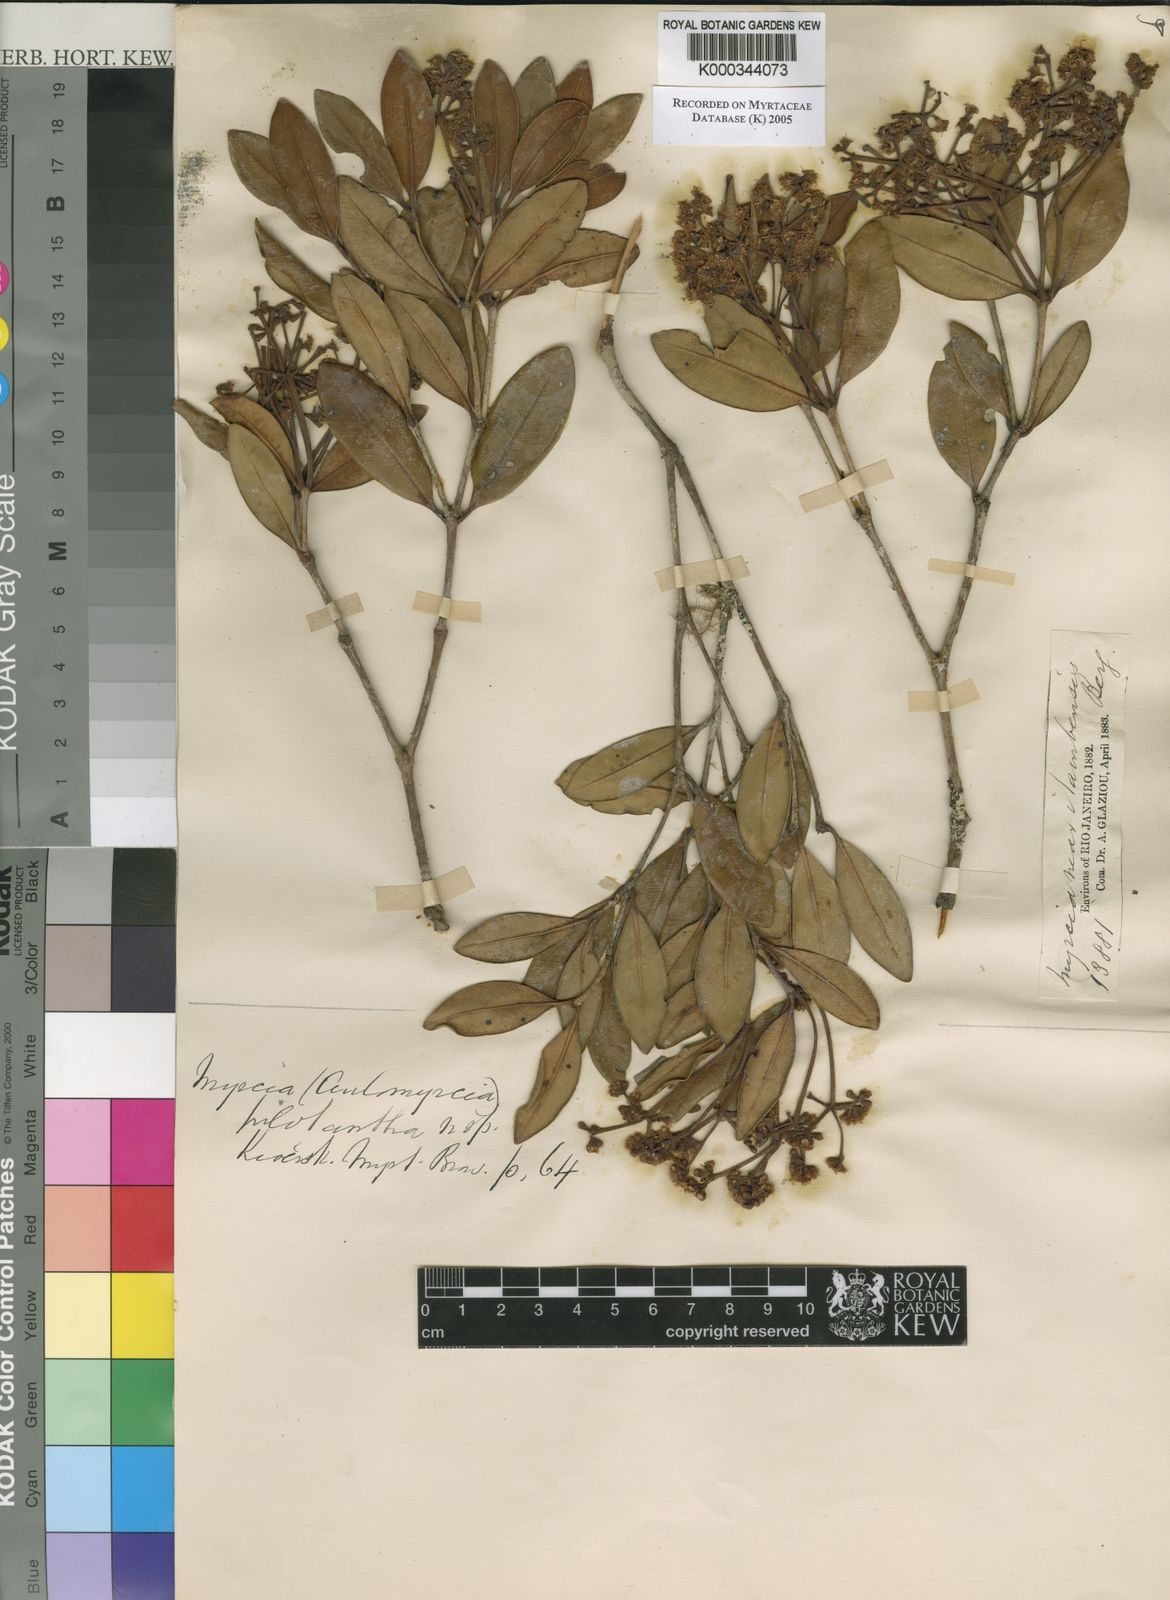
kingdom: Plantae
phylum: Tracheophyta
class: Magnoliopsida
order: Myrtales
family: Myrtaceae
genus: Myrcia
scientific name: Myrcia pulchra
